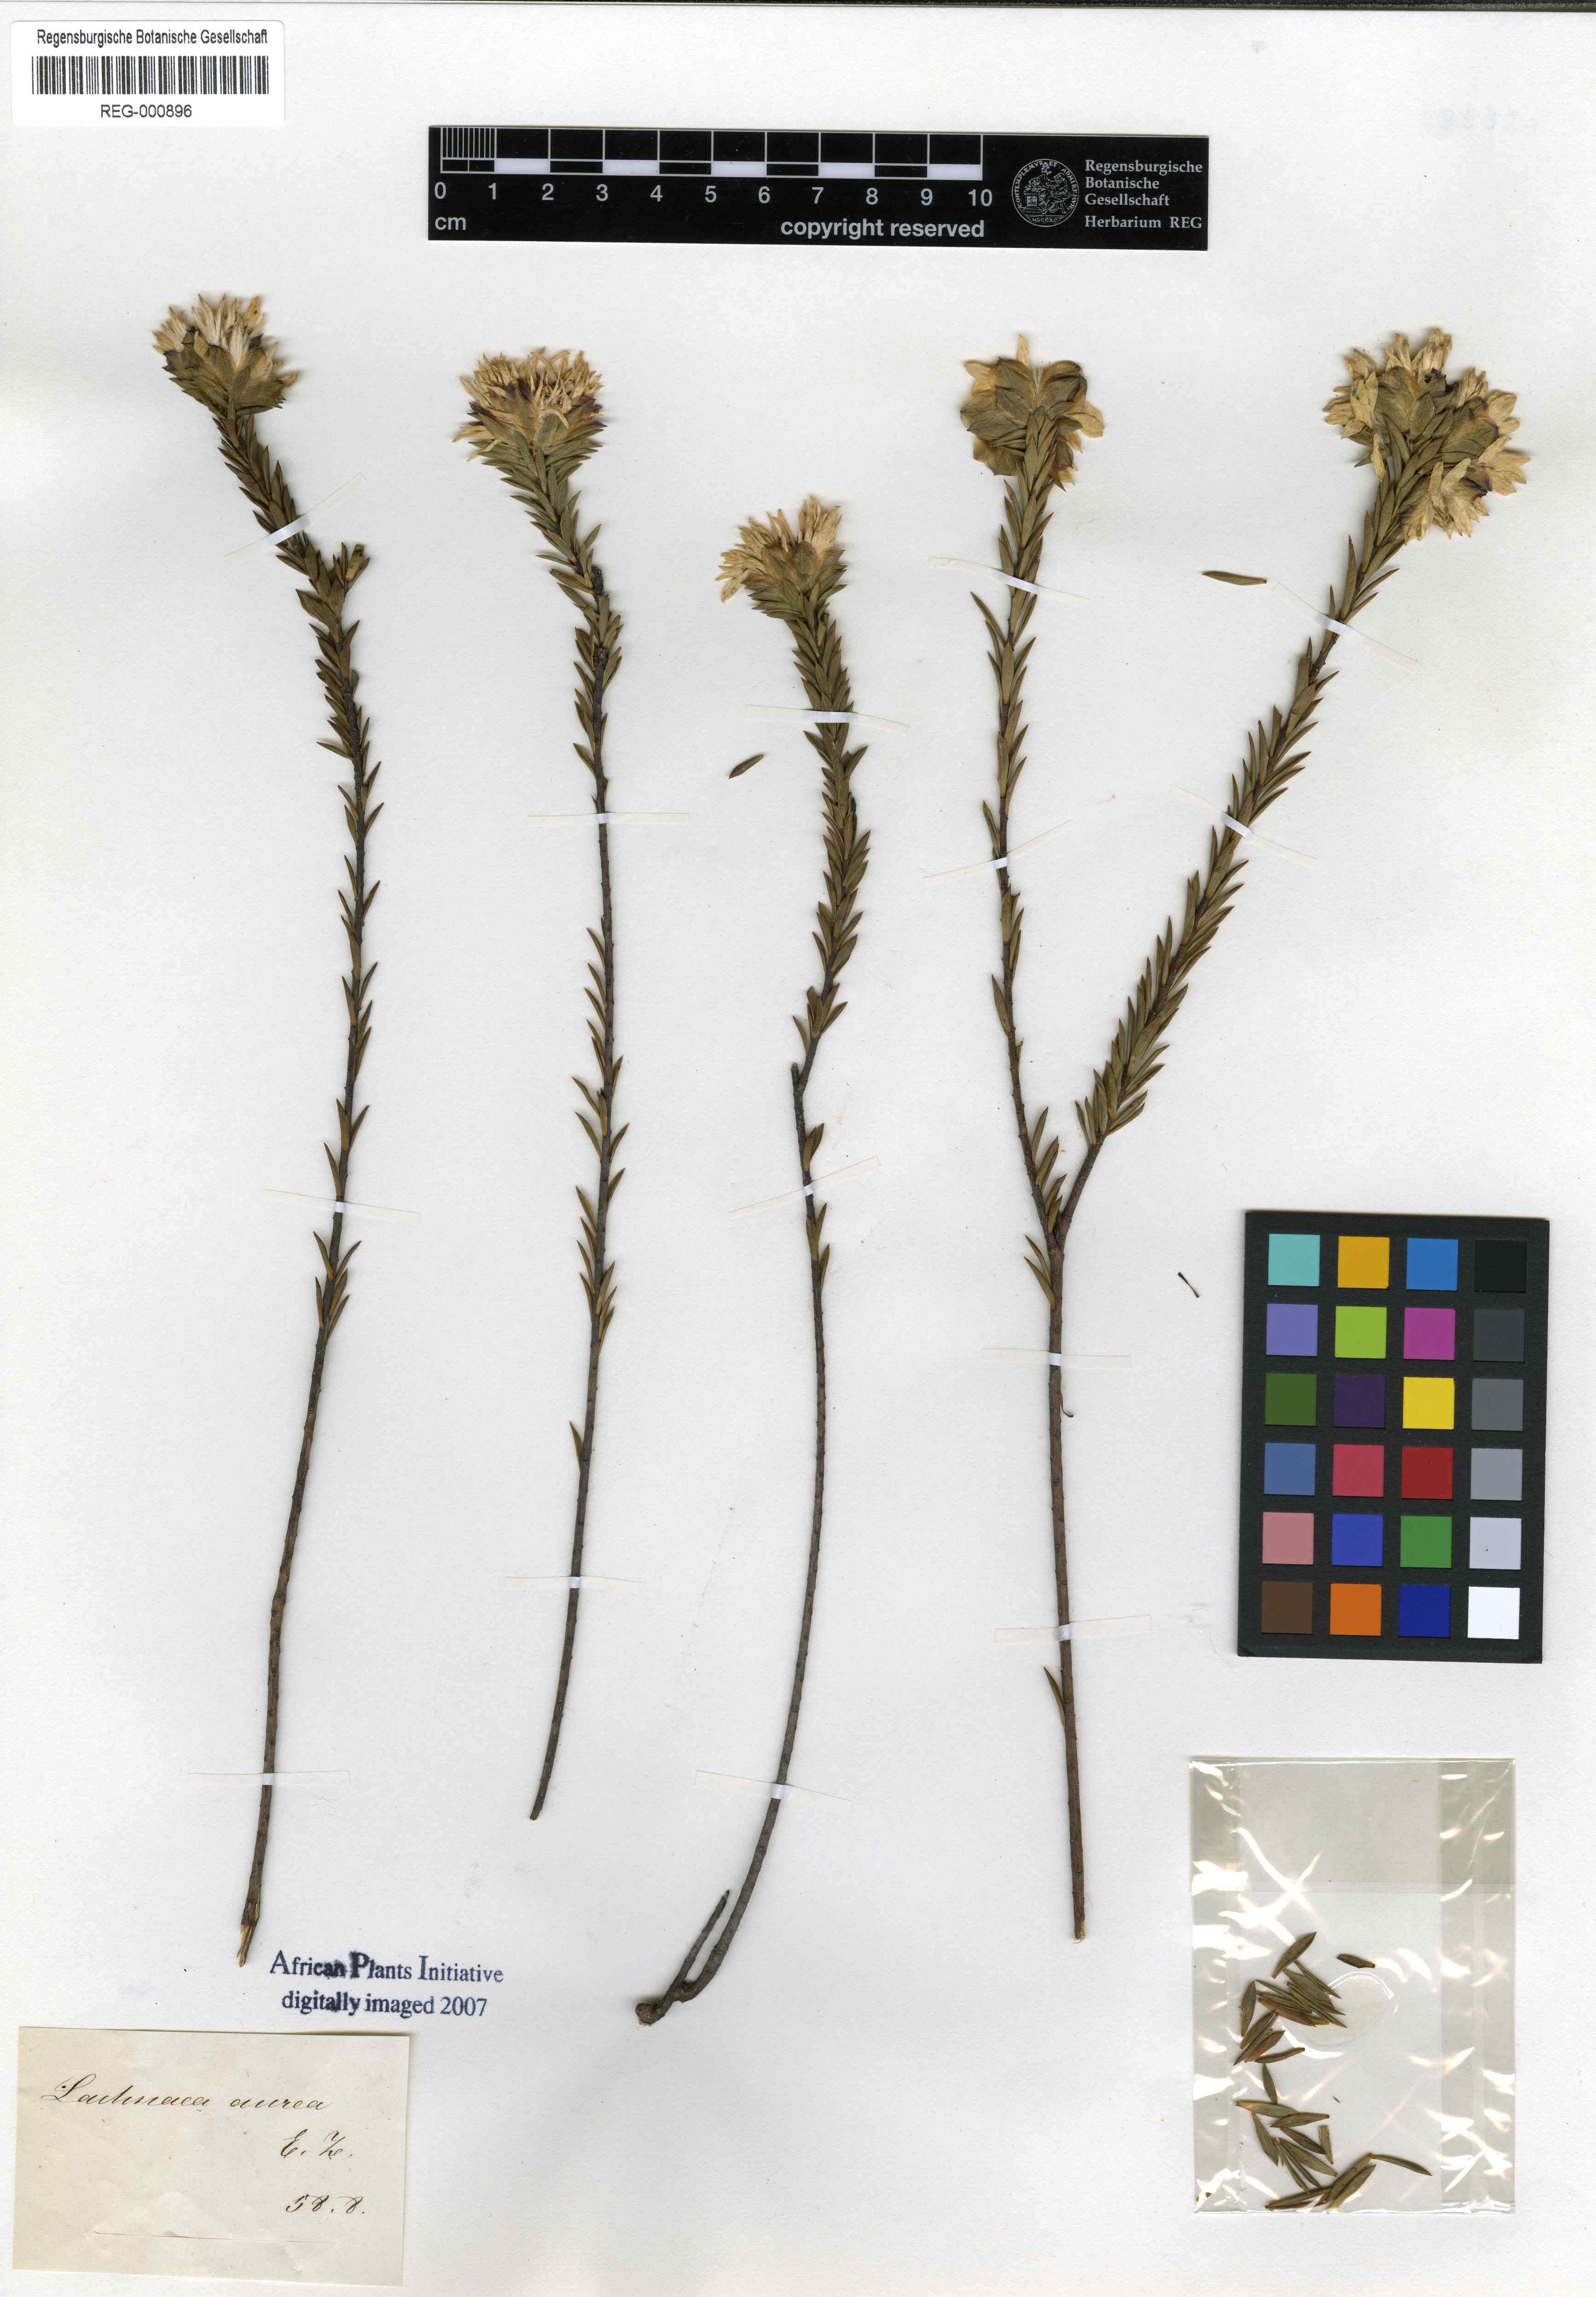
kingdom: Plantae
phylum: Tracheophyta
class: Magnoliopsida
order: Malvales
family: Thymelaeaceae
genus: Lachnaea
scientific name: Lachnaea aurea
